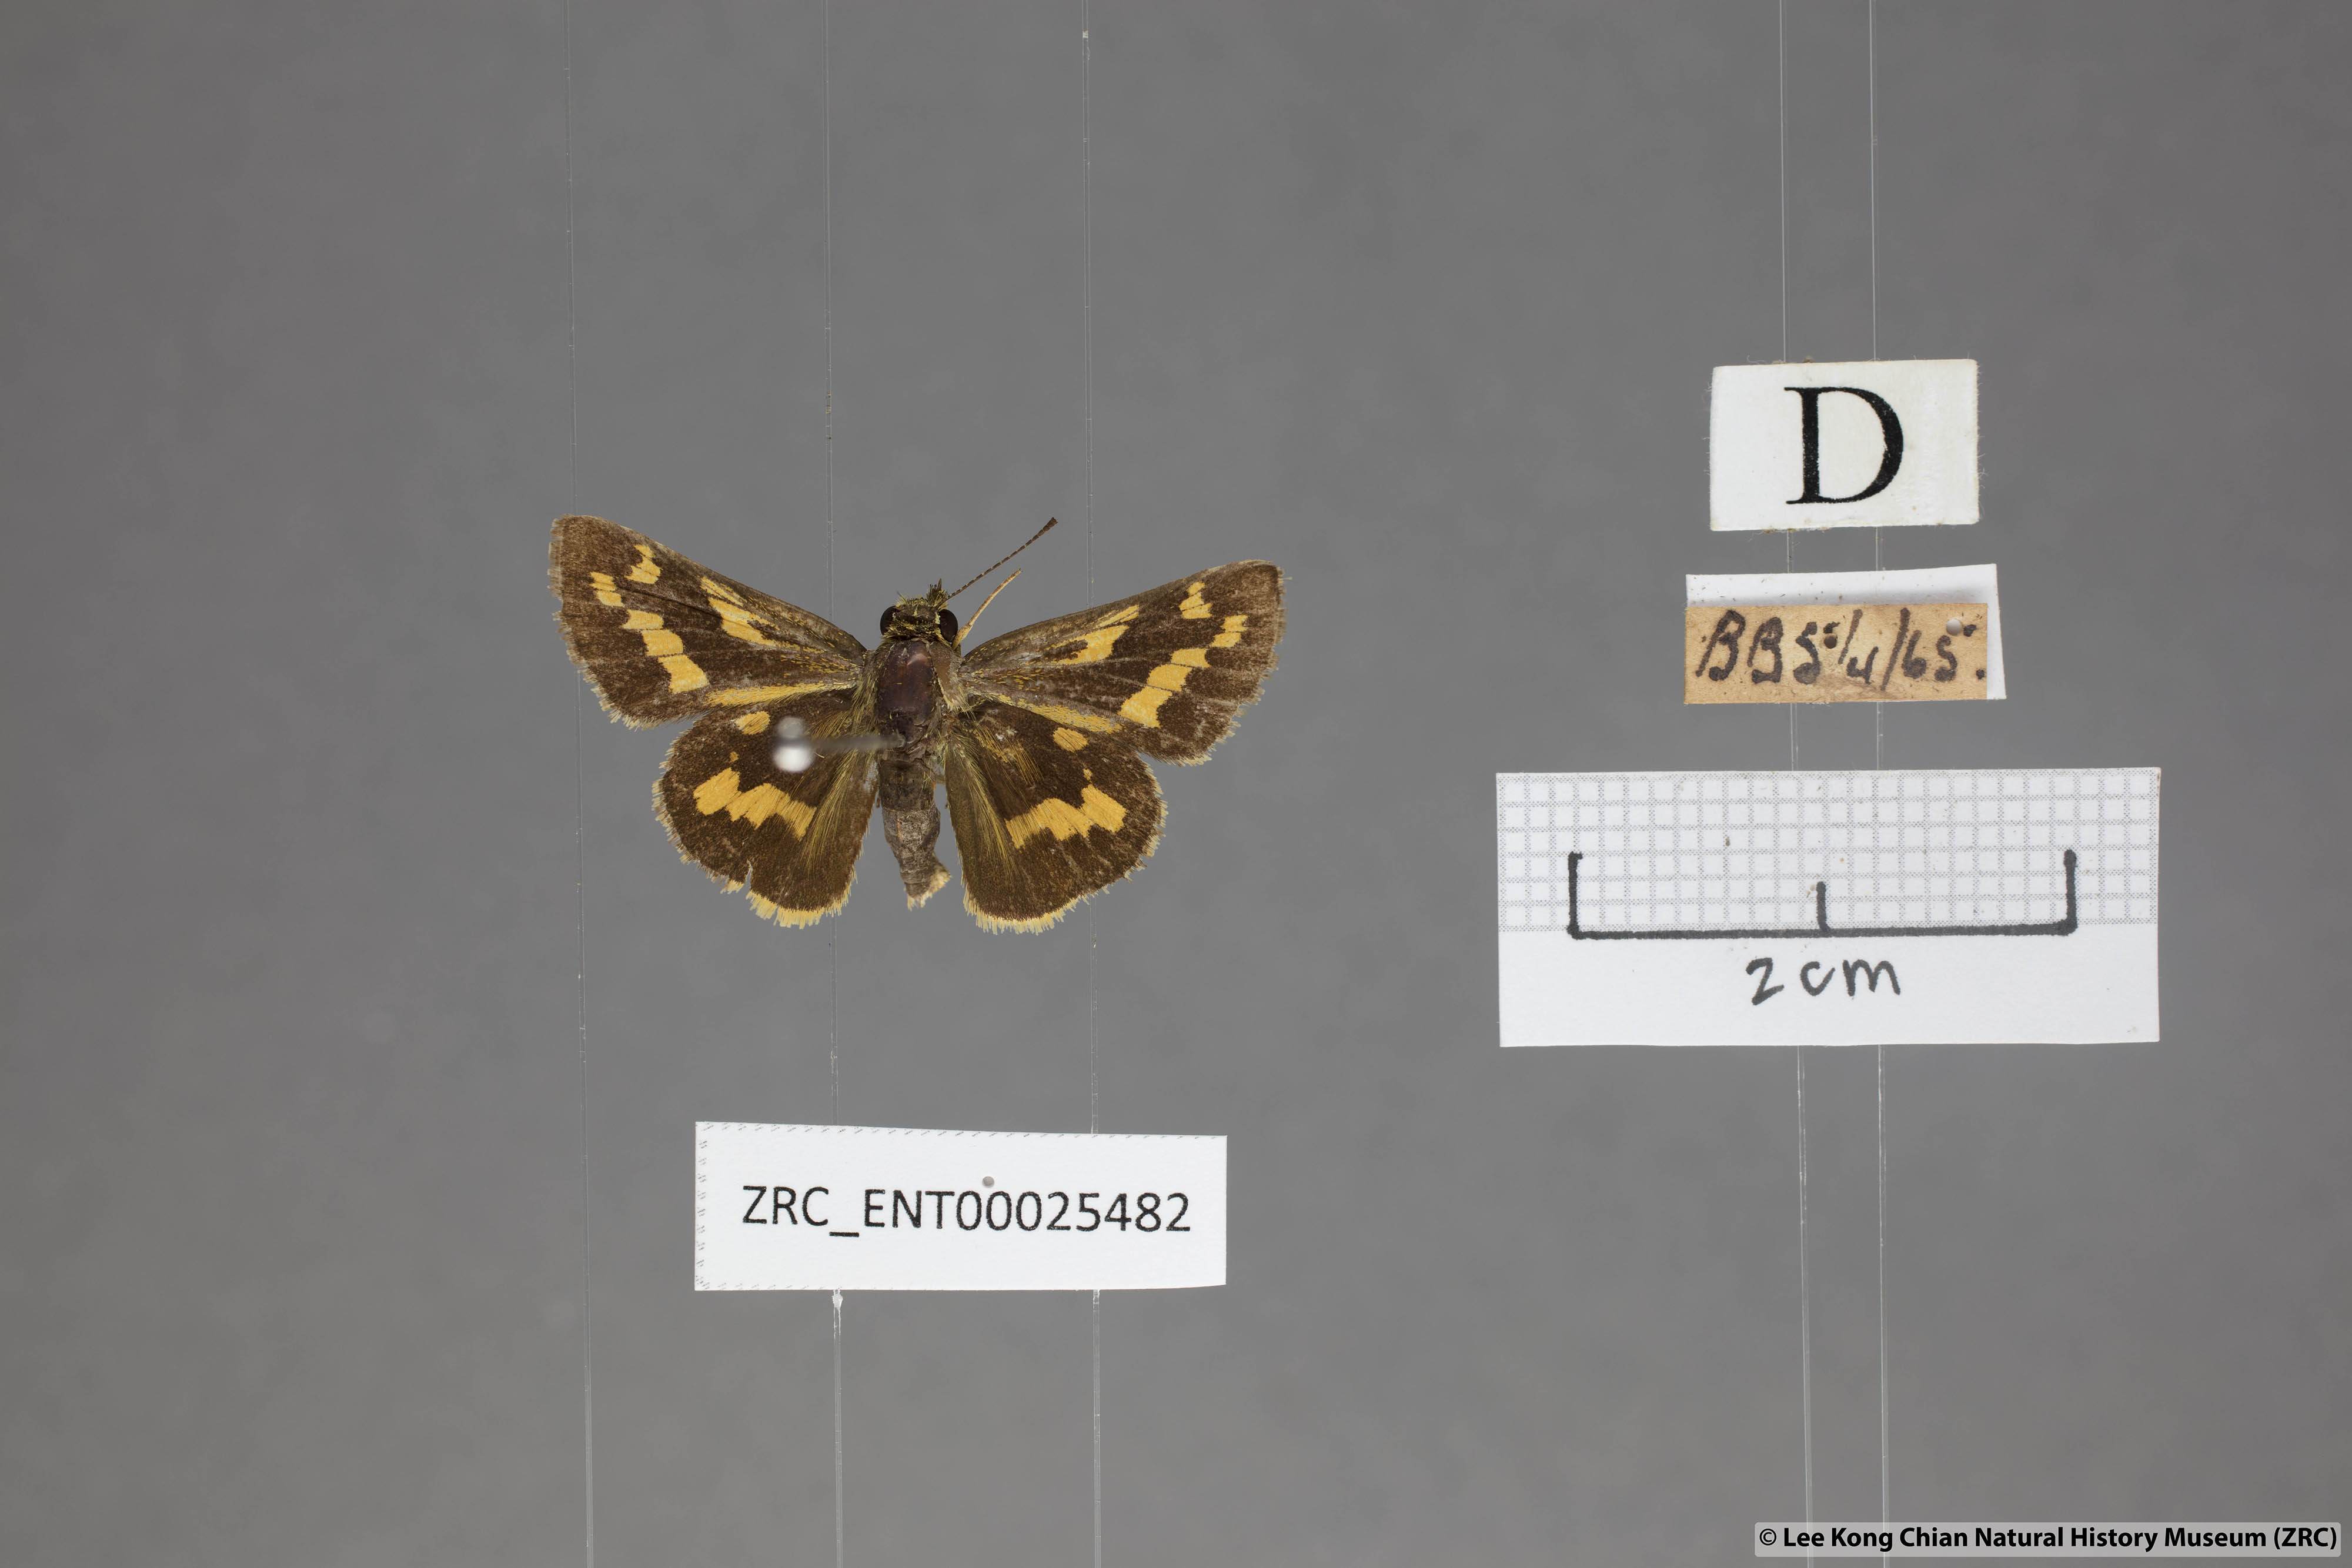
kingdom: Animalia
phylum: Arthropoda
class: Insecta
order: Lepidoptera
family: Hesperiidae
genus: Potanthus
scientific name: Potanthus trachala
